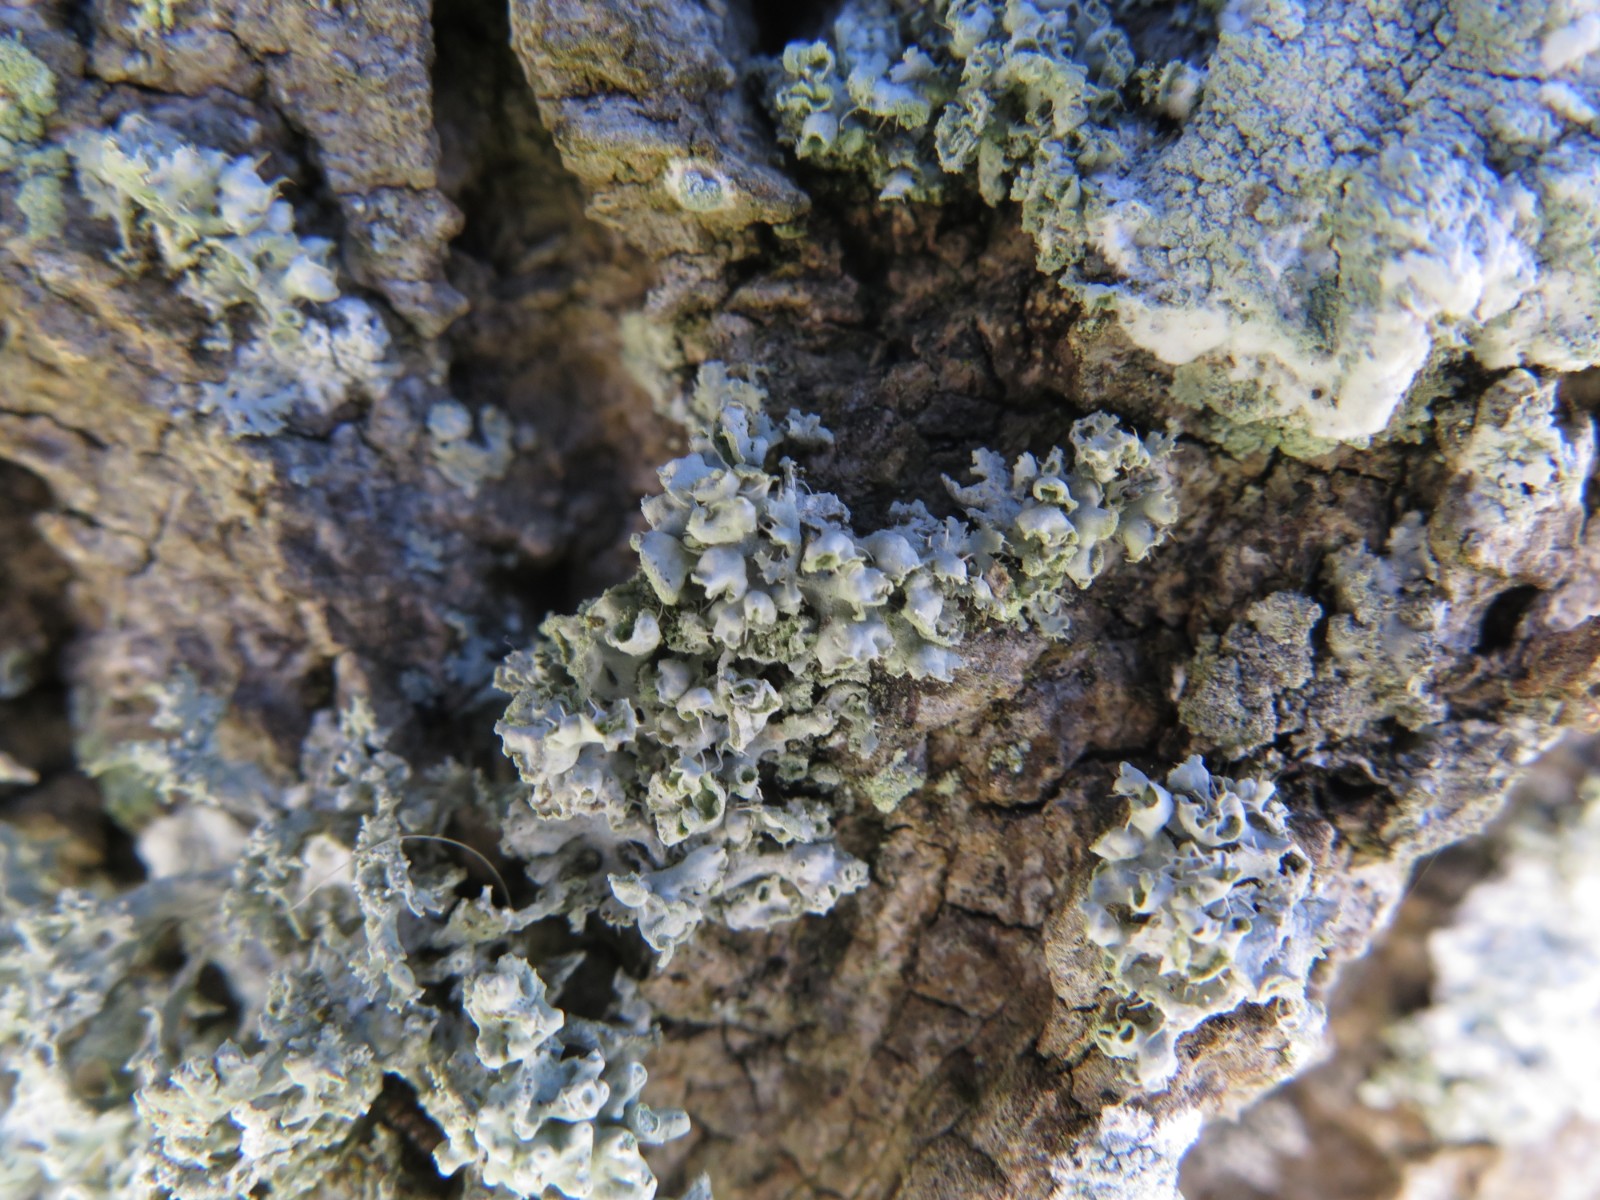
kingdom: Fungi
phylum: Ascomycota
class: Lecanoromycetes
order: Caliciales
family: Physciaceae
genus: Physcia
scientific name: Physcia adscendens
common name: hætte-rosetlav
